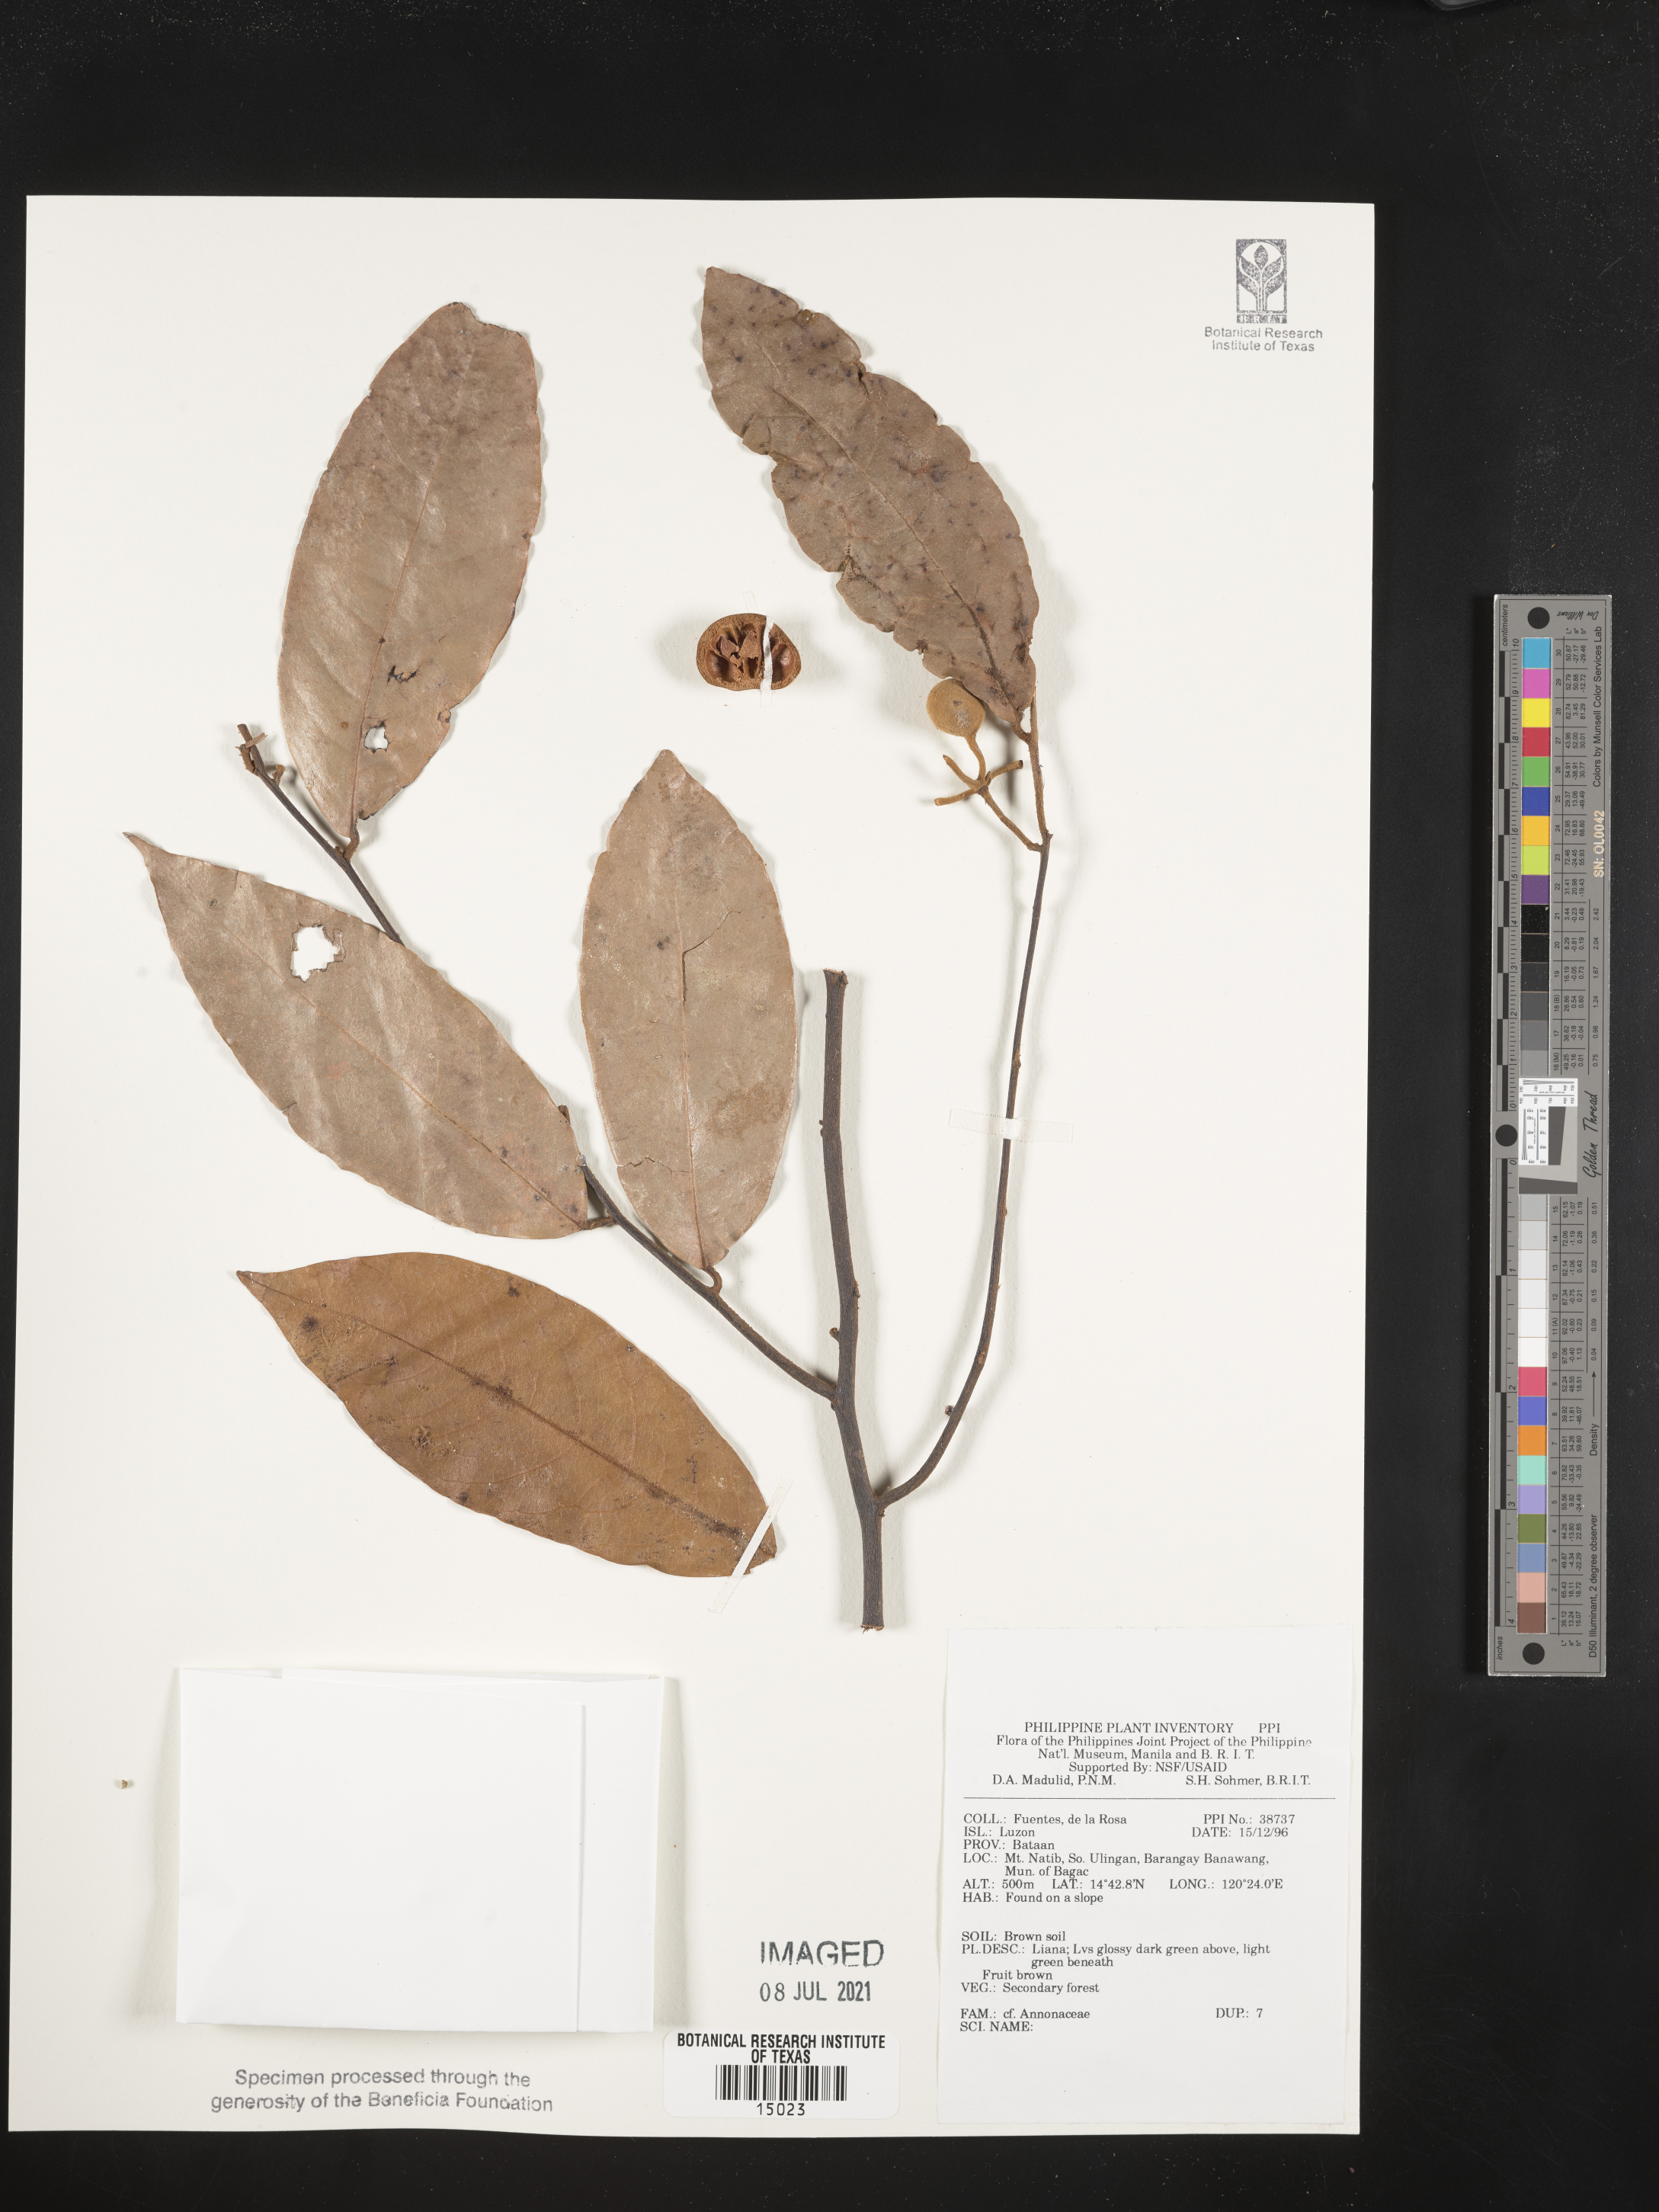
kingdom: Plantae
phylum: Tracheophyta
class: Magnoliopsida
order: Magnoliales
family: Annonaceae
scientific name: Annonaceae
